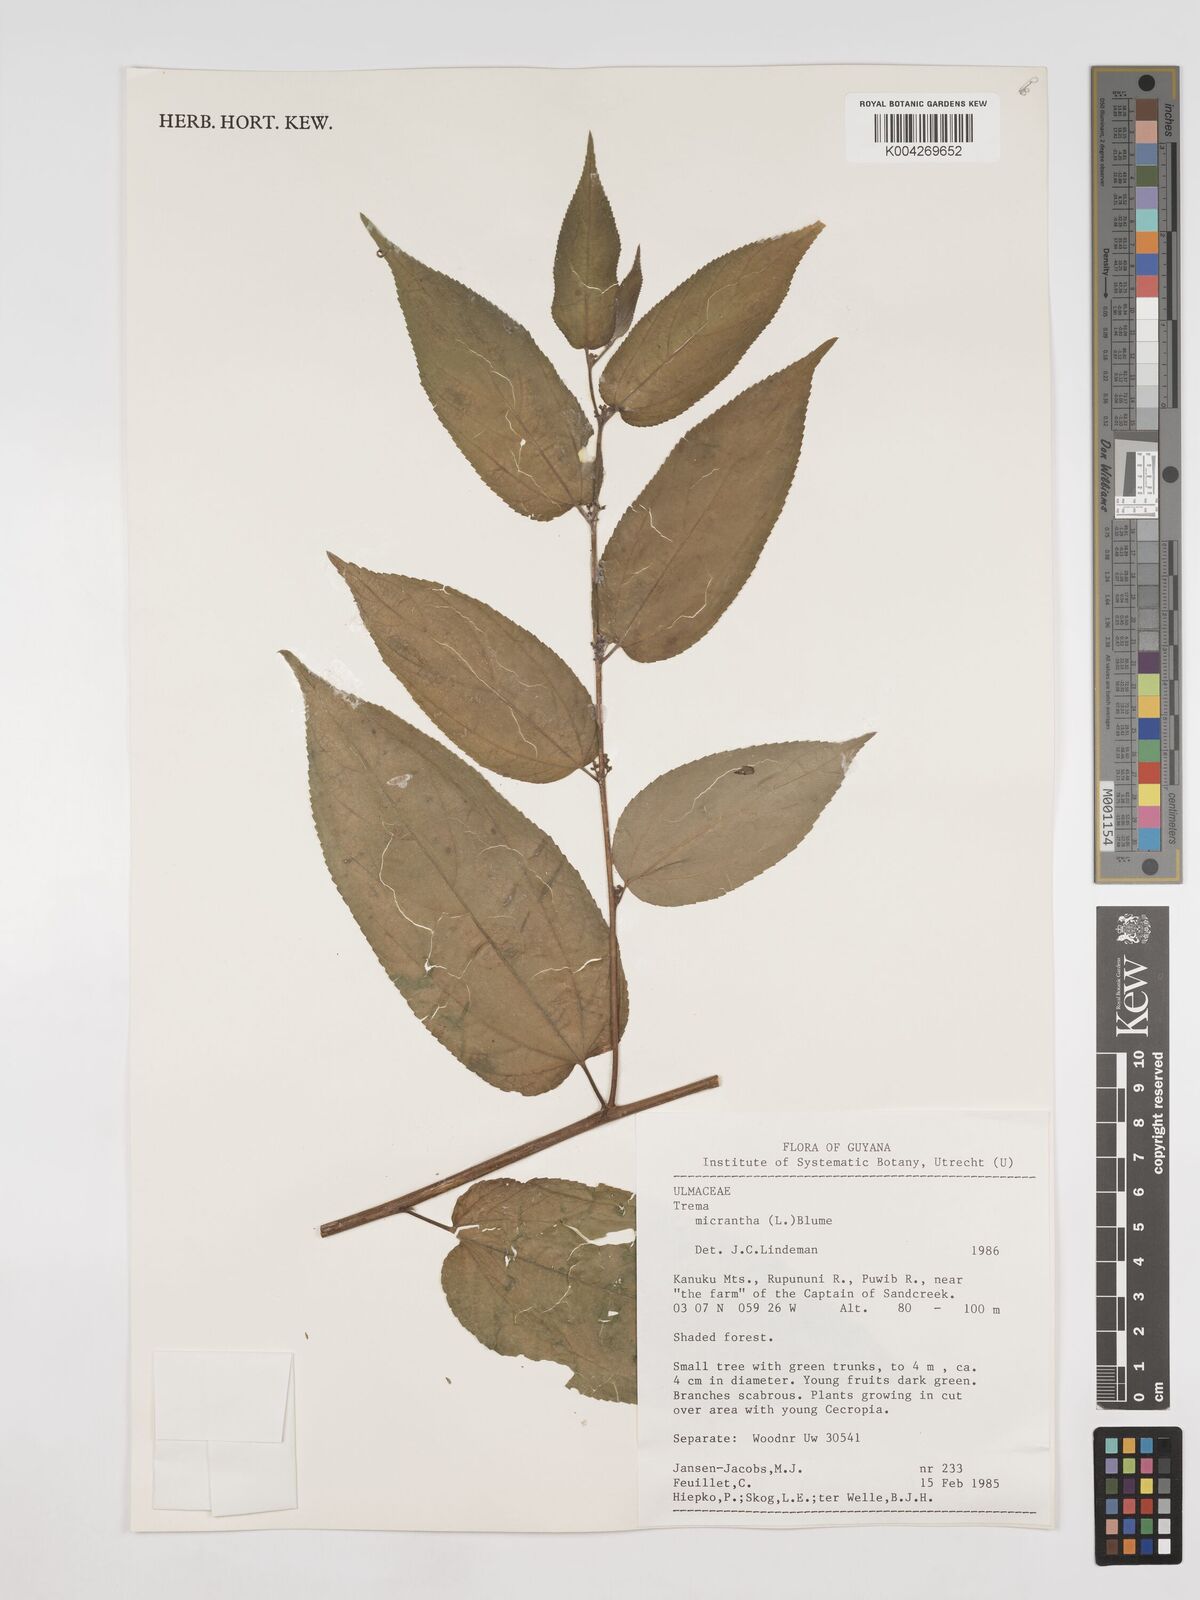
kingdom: Plantae
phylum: Tracheophyta
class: Magnoliopsida
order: Rosales
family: Cannabaceae
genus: Trema
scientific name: Trema micranthum
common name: Jamaican nettletree
